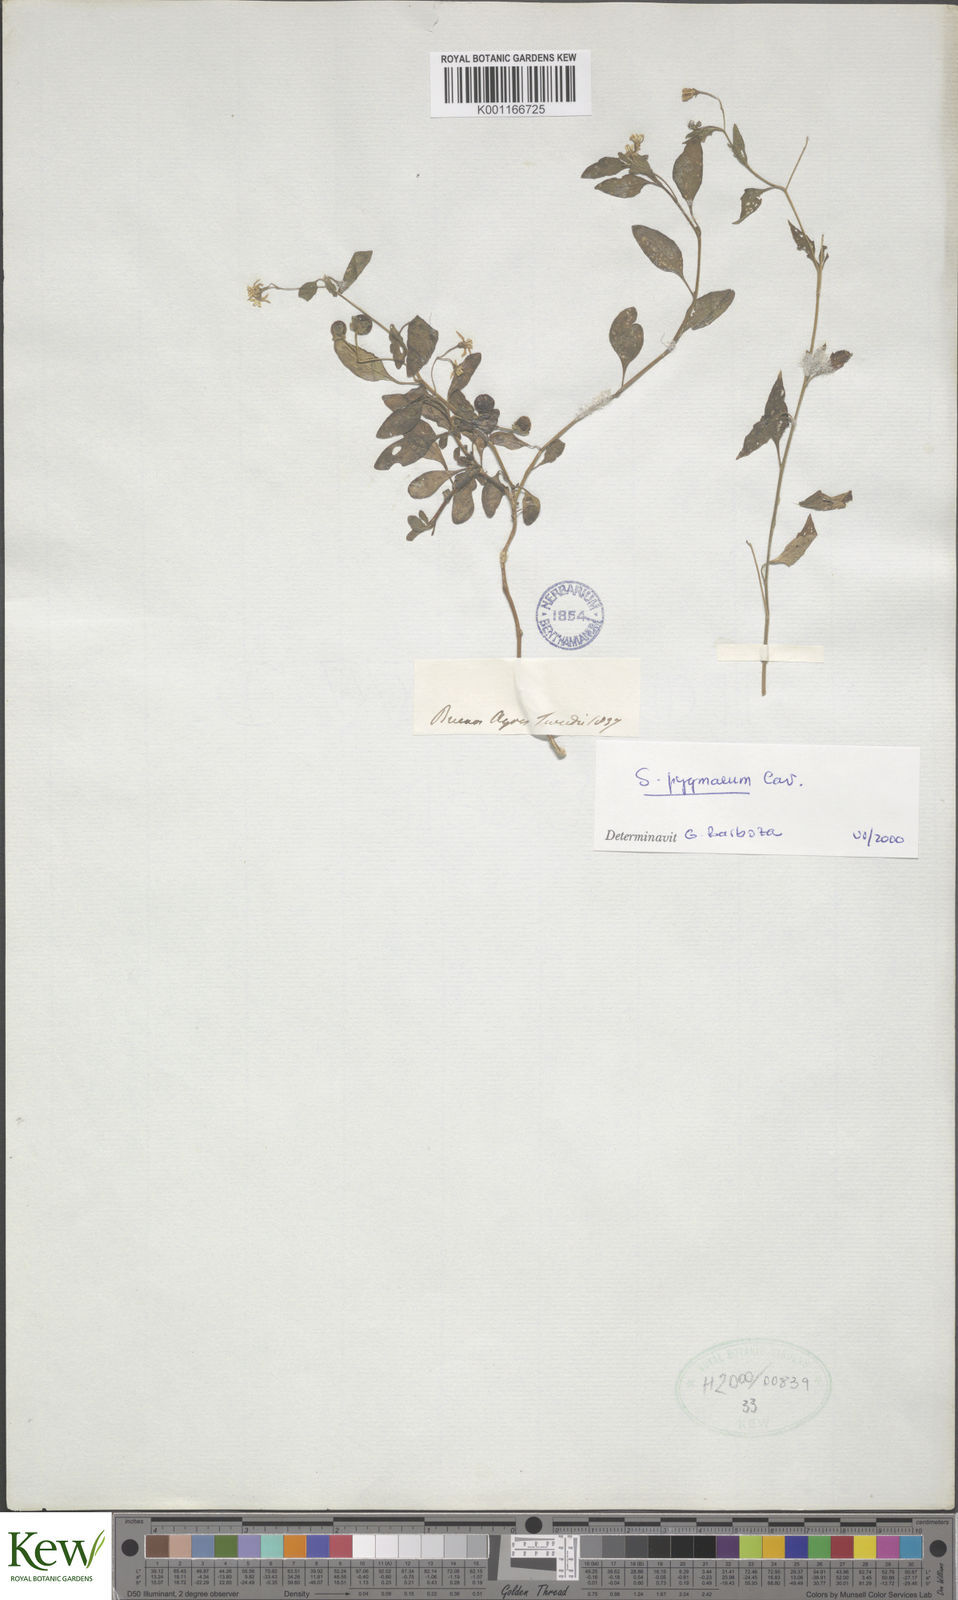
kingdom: Plantae
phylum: Tracheophyta
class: Magnoliopsida
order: Solanales
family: Solanaceae
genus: Solanum
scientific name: Solanum pygmaeum
